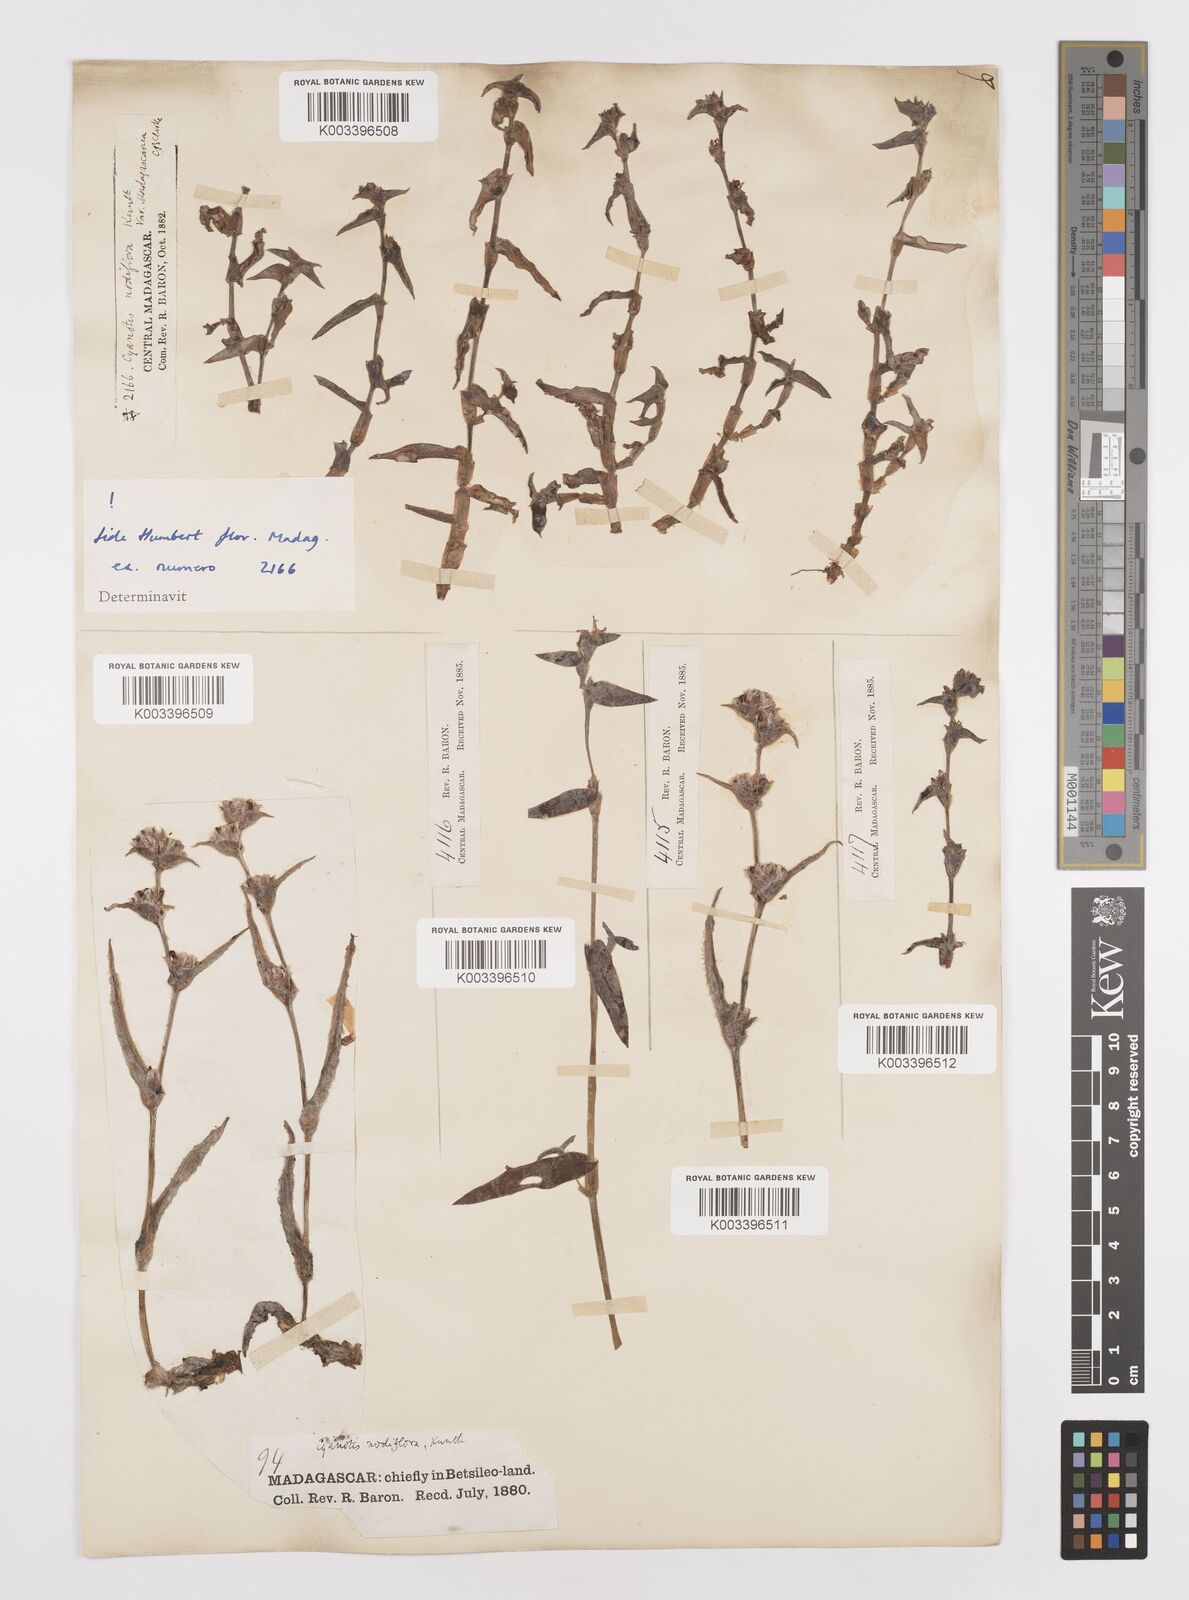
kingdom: Plantae
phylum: Tracheophyta
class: Liliopsida
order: Commelinales
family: Commelinaceae
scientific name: Commelinaceae
